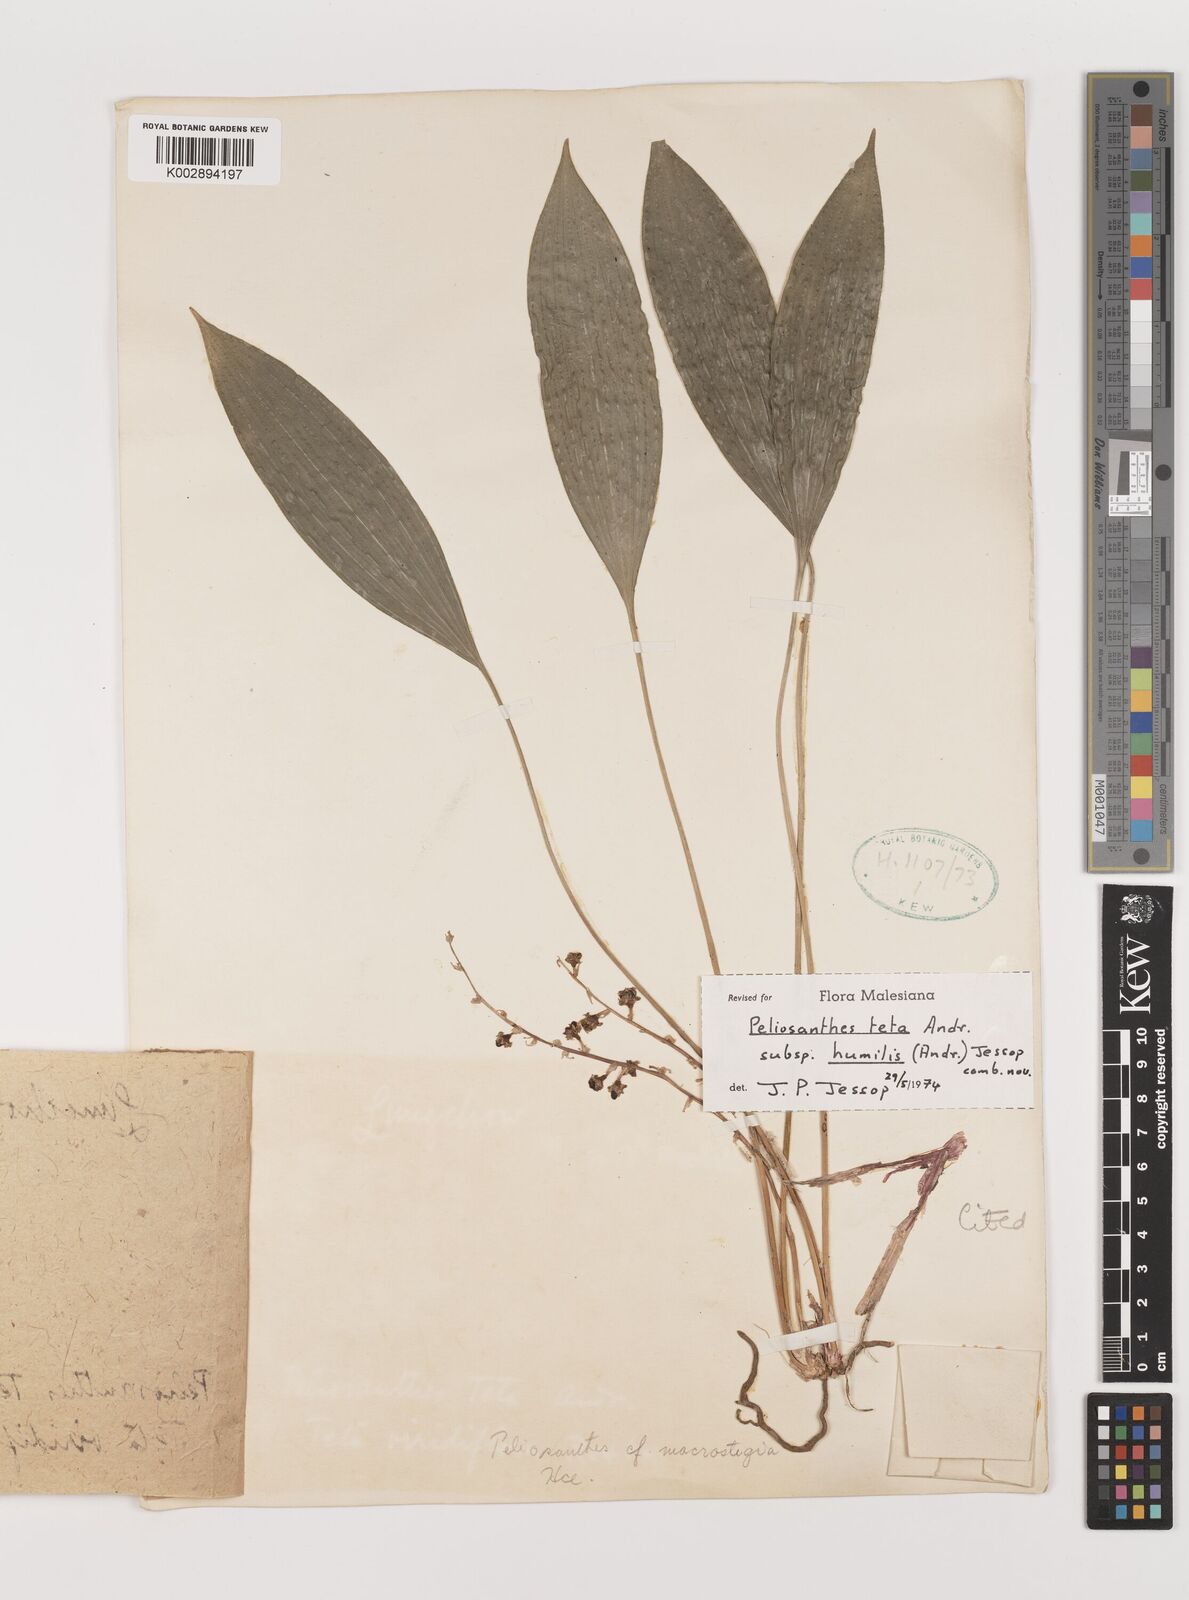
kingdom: Plantae
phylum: Tracheophyta
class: Liliopsida
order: Asparagales
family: Asparagaceae
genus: Peliosanthes
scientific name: Peliosanthes teta
